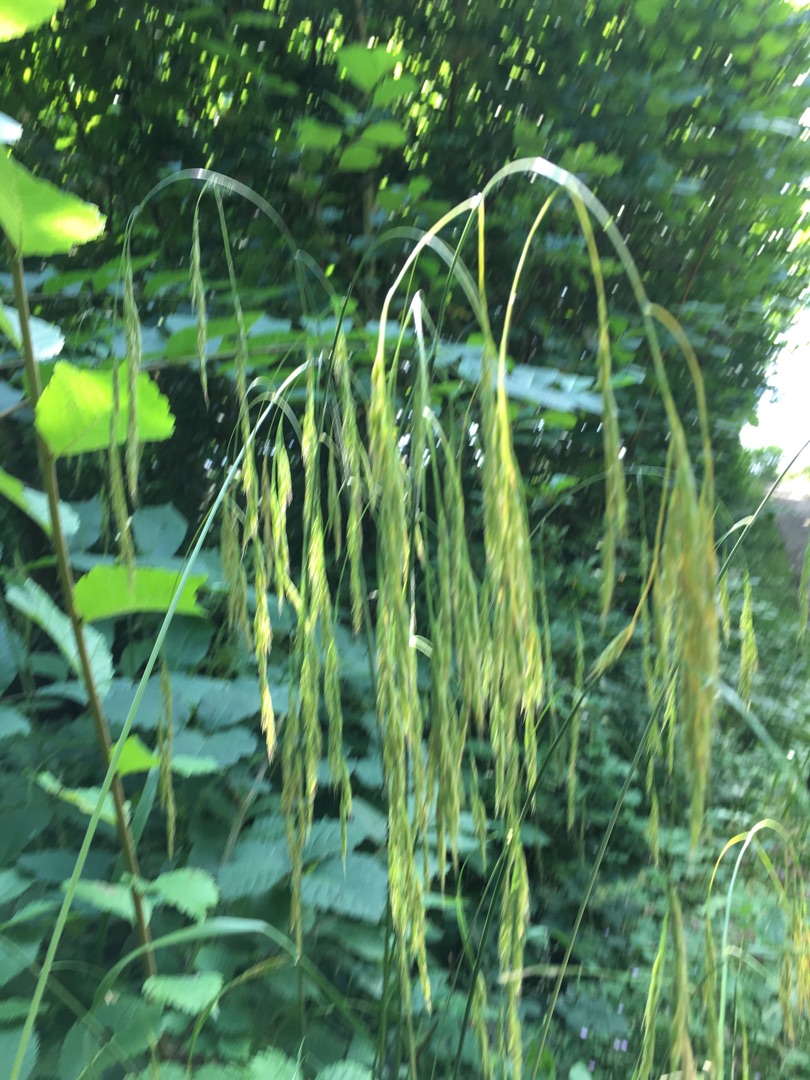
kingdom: Plantae
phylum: Tracheophyta
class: Liliopsida
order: Poales
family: Poaceae
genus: Bromus
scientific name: Bromus ramosus
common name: Sildig skov-hejre
